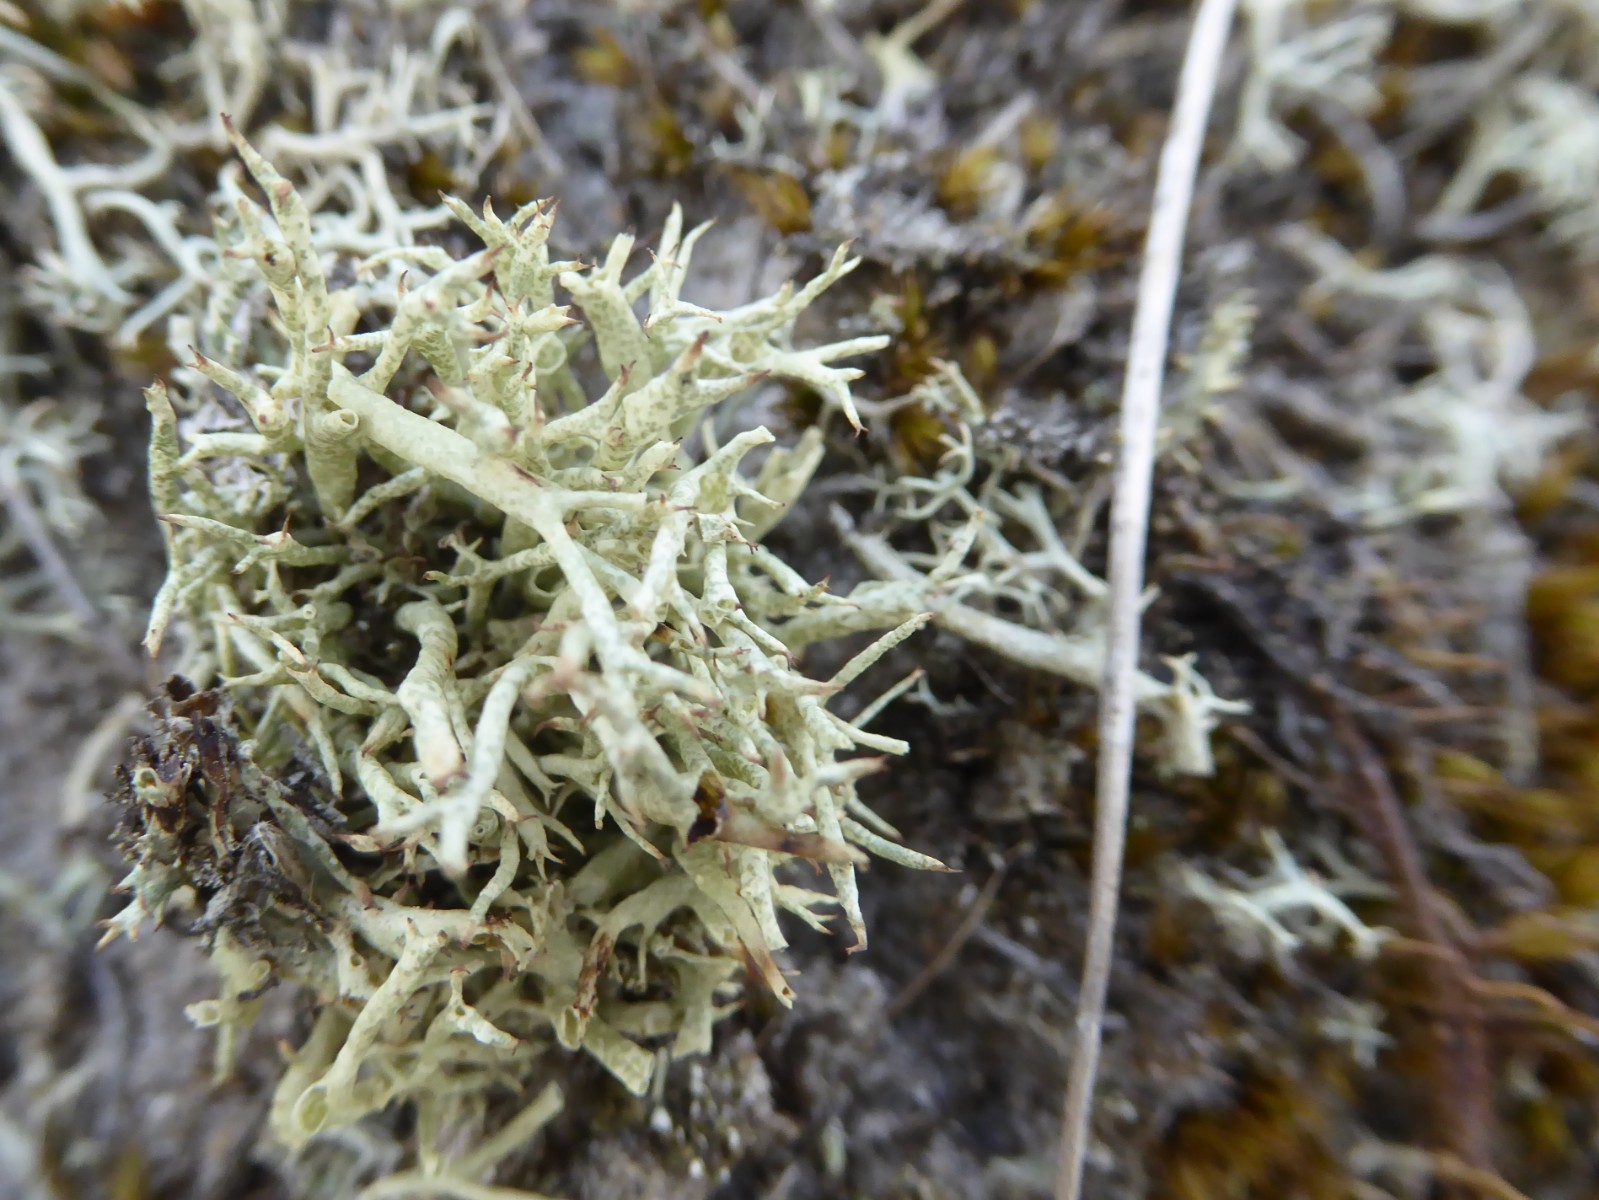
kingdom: Fungi
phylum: Ascomycota
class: Lecanoromycetes
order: Lecanorales
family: Cladoniaceae
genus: Cladonia
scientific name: Cladonia uncialis
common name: pigget bægerlav
